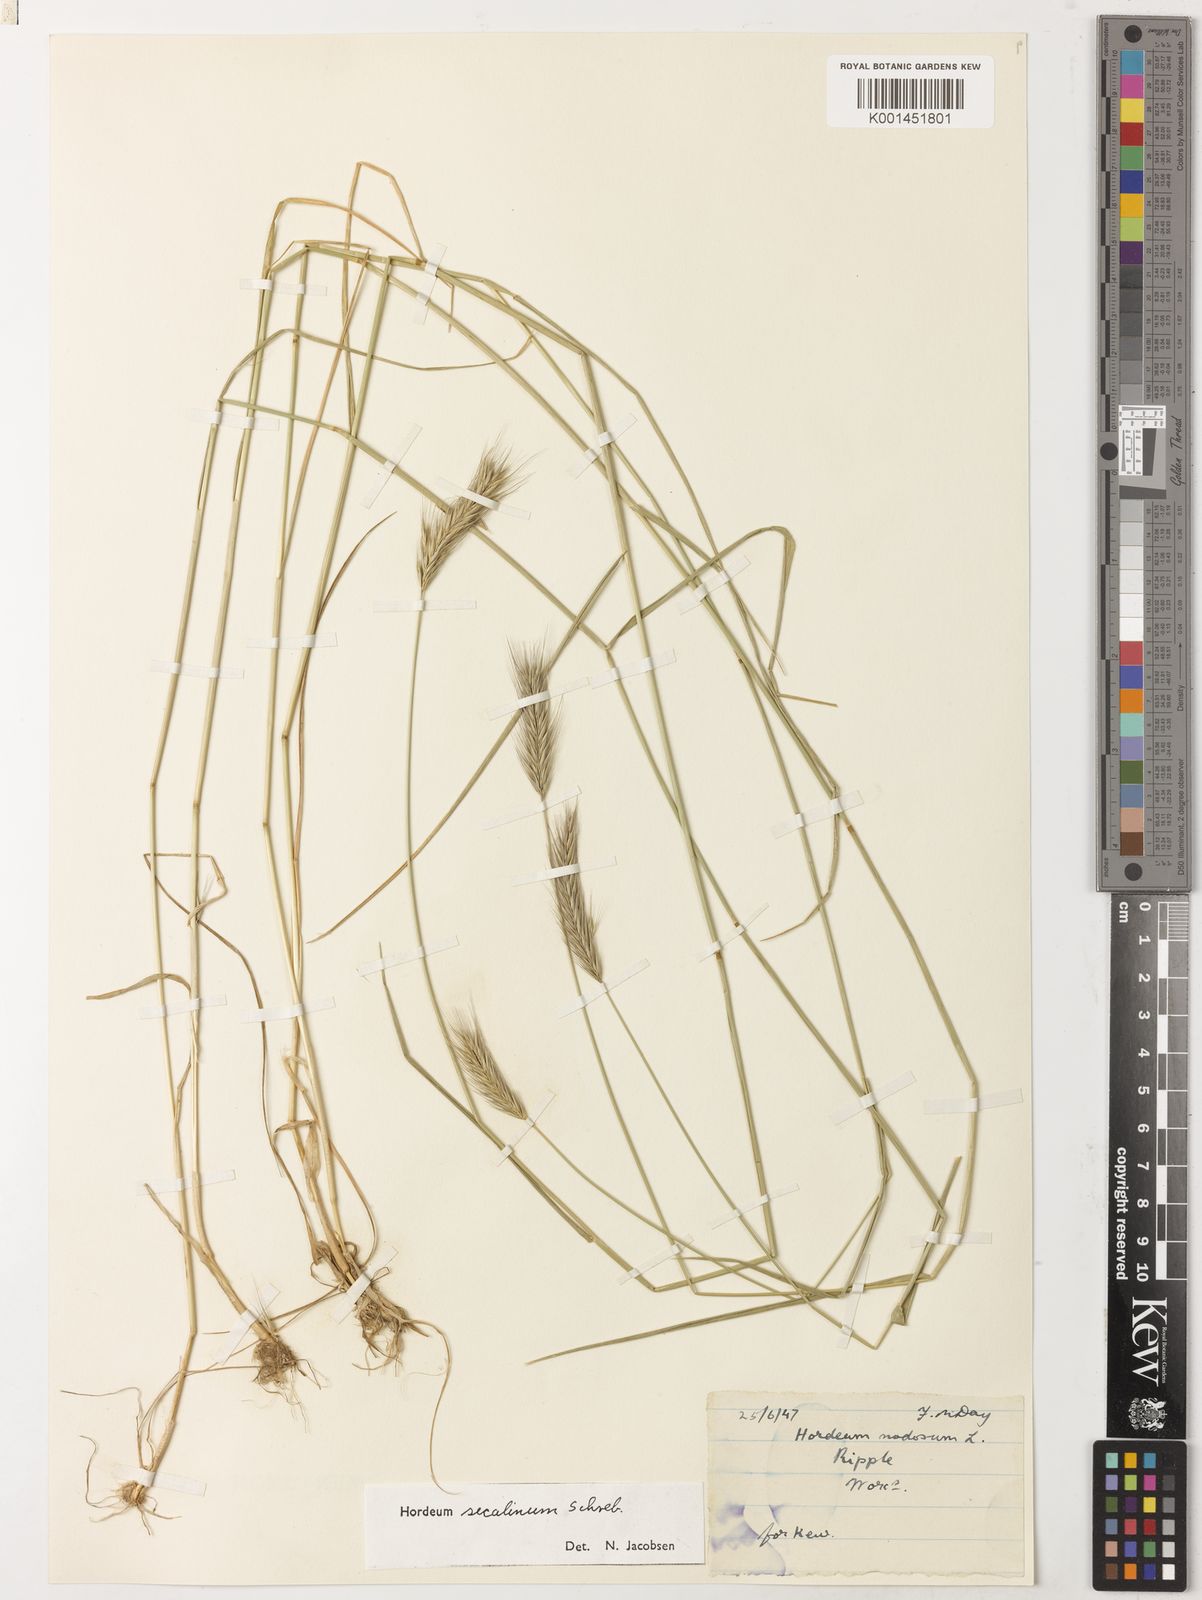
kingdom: Plantae
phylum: Tracheophyta
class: Liliopsida
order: Poales
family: Poaceae
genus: Hordeum
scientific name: Hordeum secalinum
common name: Meadow barley
